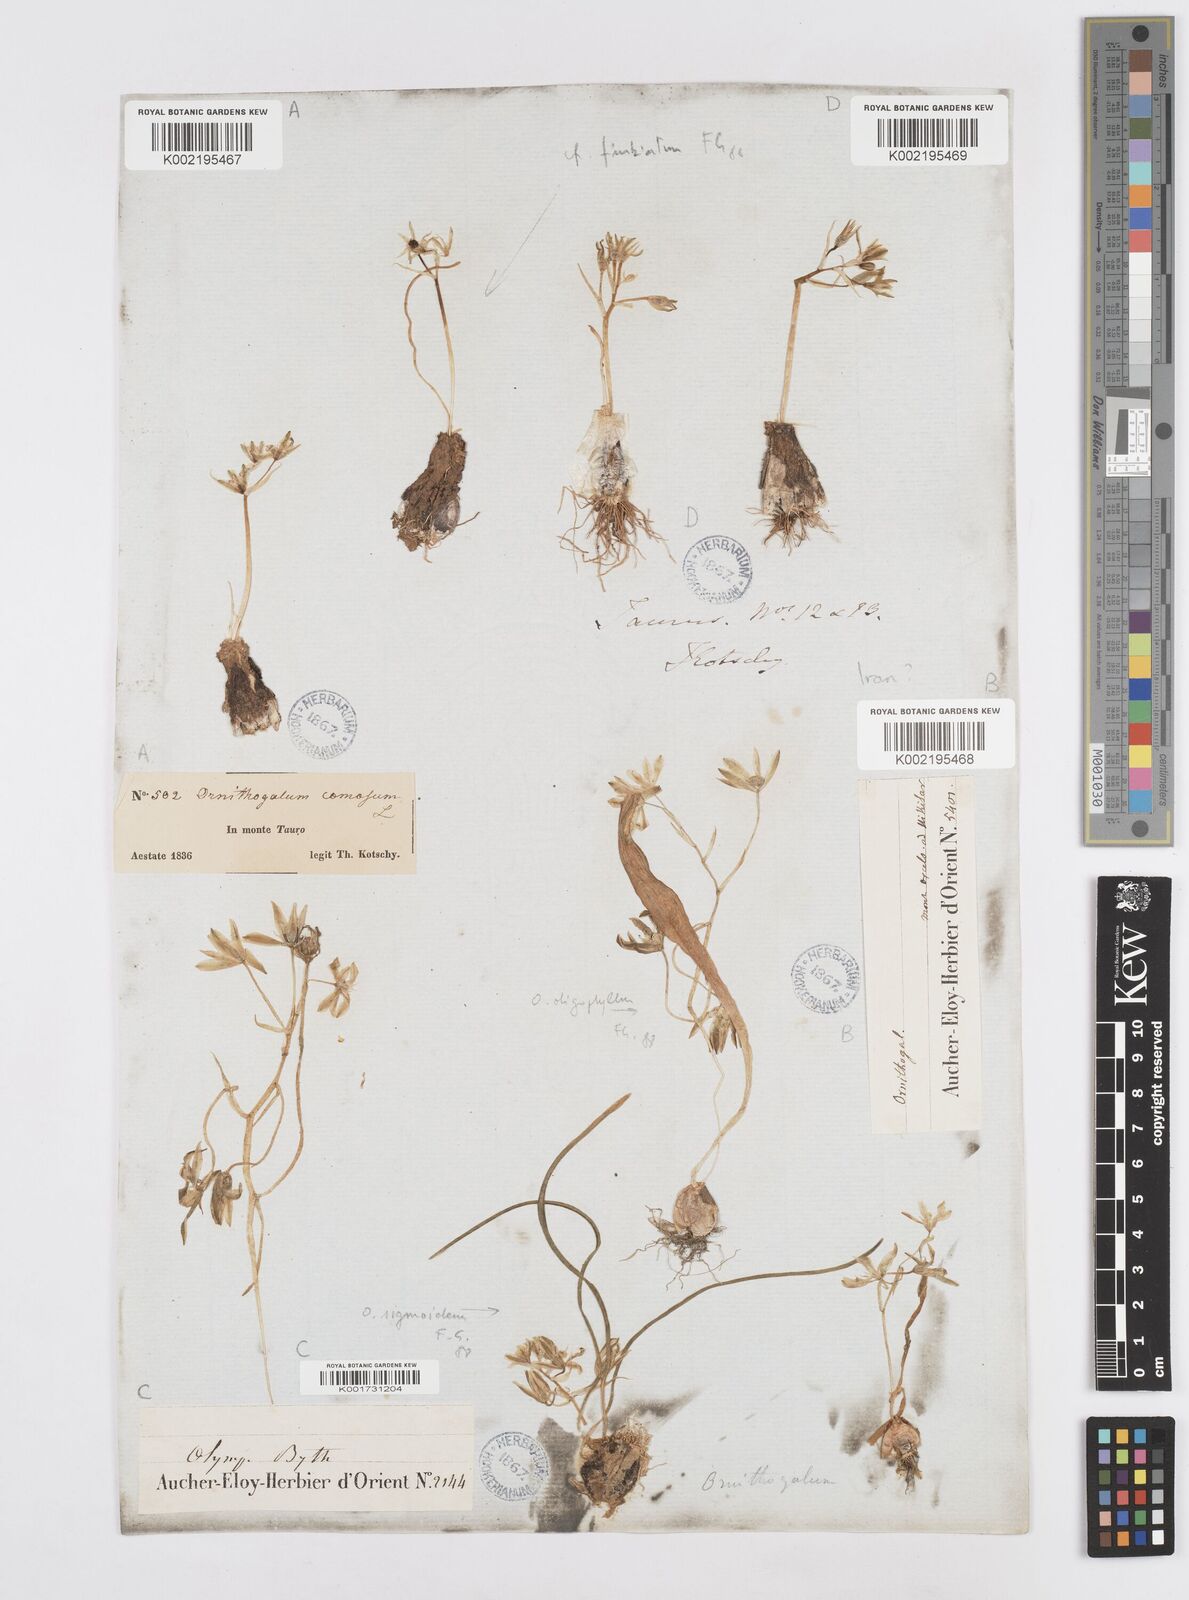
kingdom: Plantae
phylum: Tracheophyta
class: Liliopsida
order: Asparagales
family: Asparagaceae
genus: Ornithogalum
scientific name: Ornithogalum
